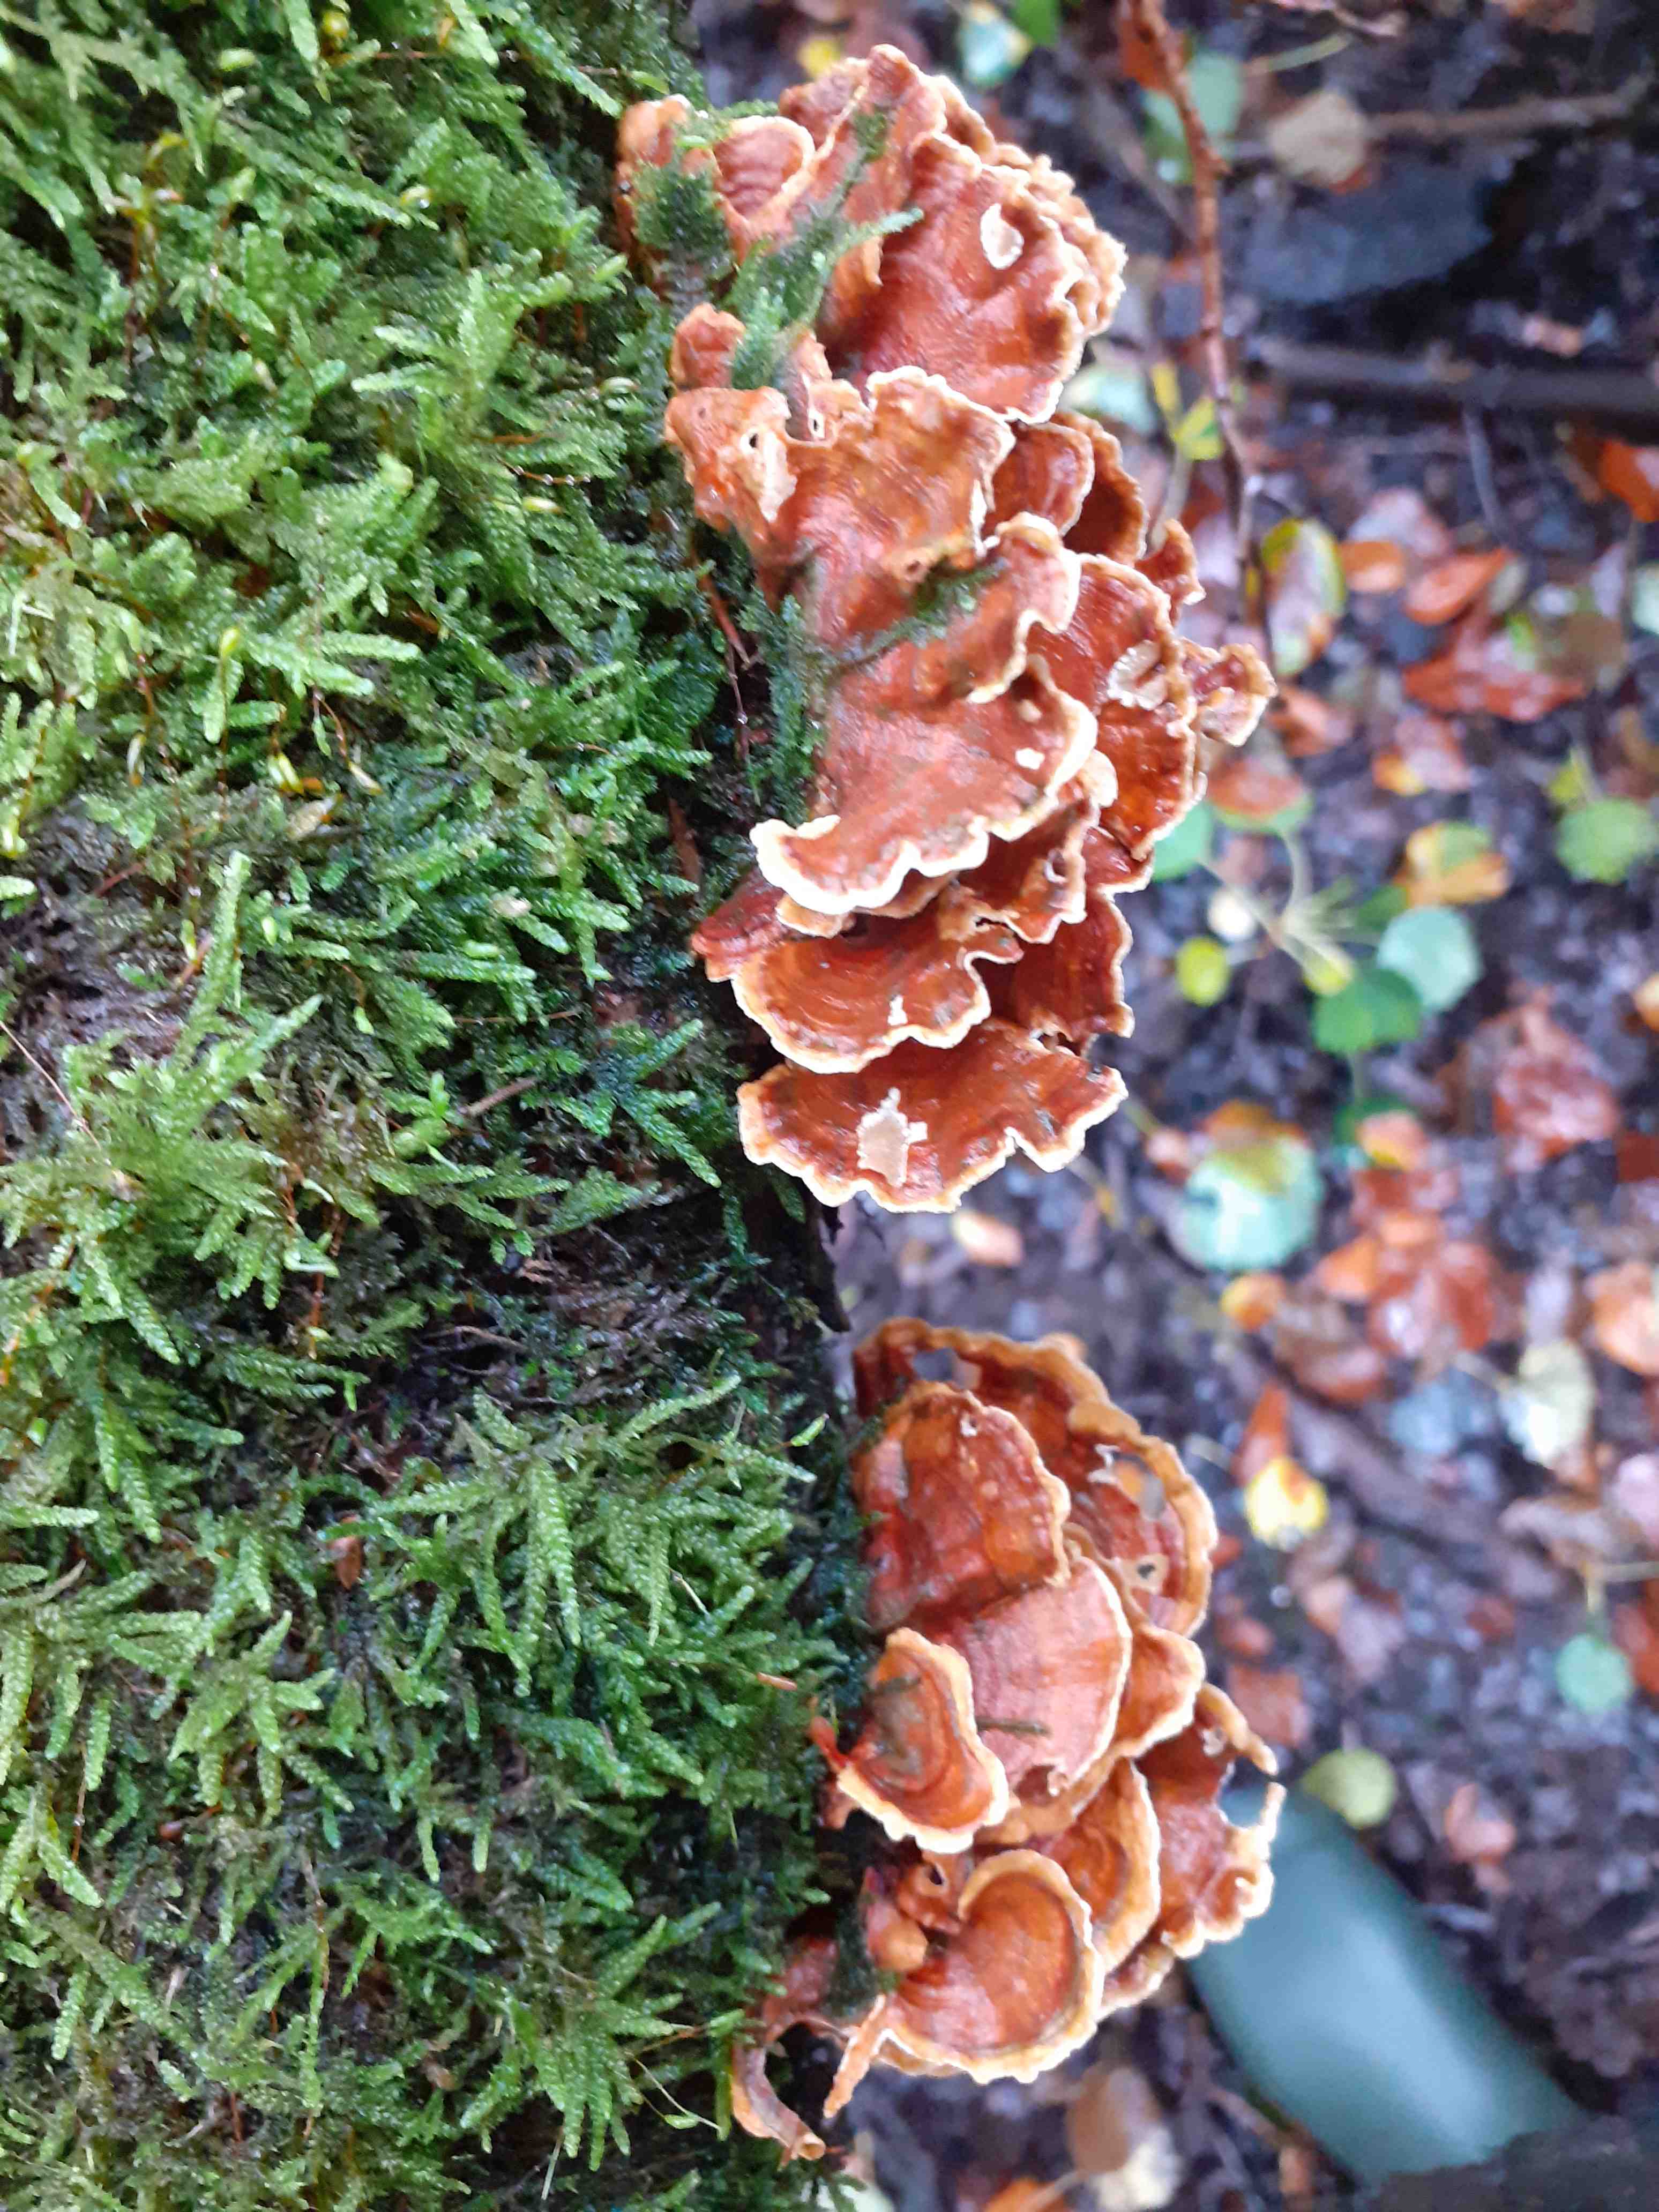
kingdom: Fungi
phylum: Basidiomycota
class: Agaricomycetes
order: Russulales
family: Stereaceae
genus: Stereum
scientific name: Stereum subtomentosum
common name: smuk lædersvamp
